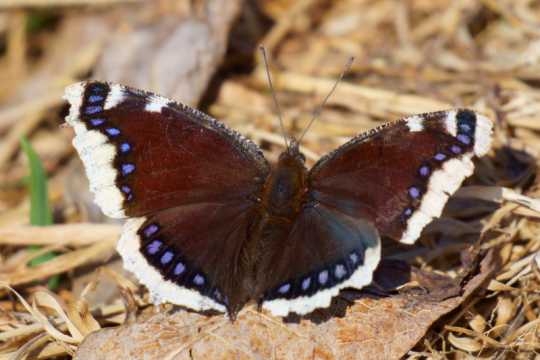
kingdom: Animalia
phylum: Arthropoda
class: Insecta
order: Lepidoptera
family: Nymphalidae
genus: Nymphalis
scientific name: Nymphalis antiopa
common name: Mourning Cloak
